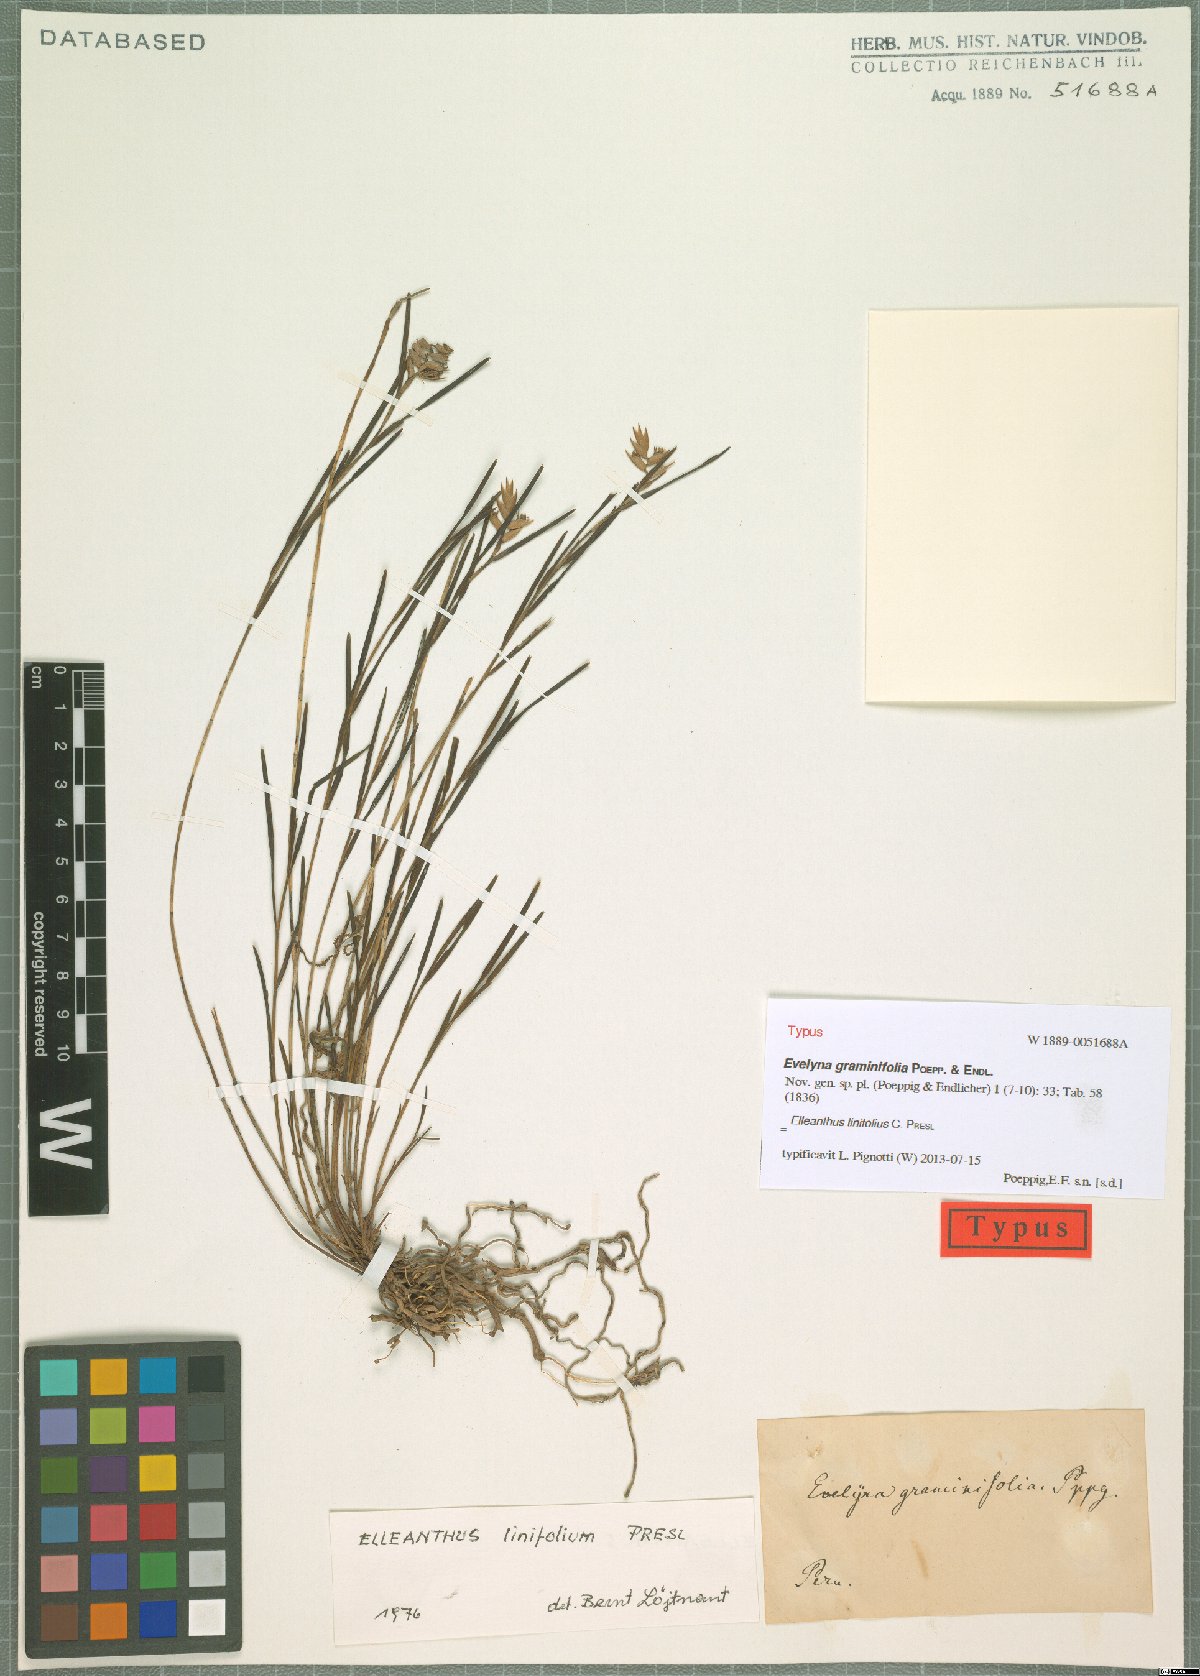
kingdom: Plantae
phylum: Tracheophyta
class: Liliopsida
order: Asparagales
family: Orchidaceae
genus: Elleanthus
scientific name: Elleanthus linifolius
